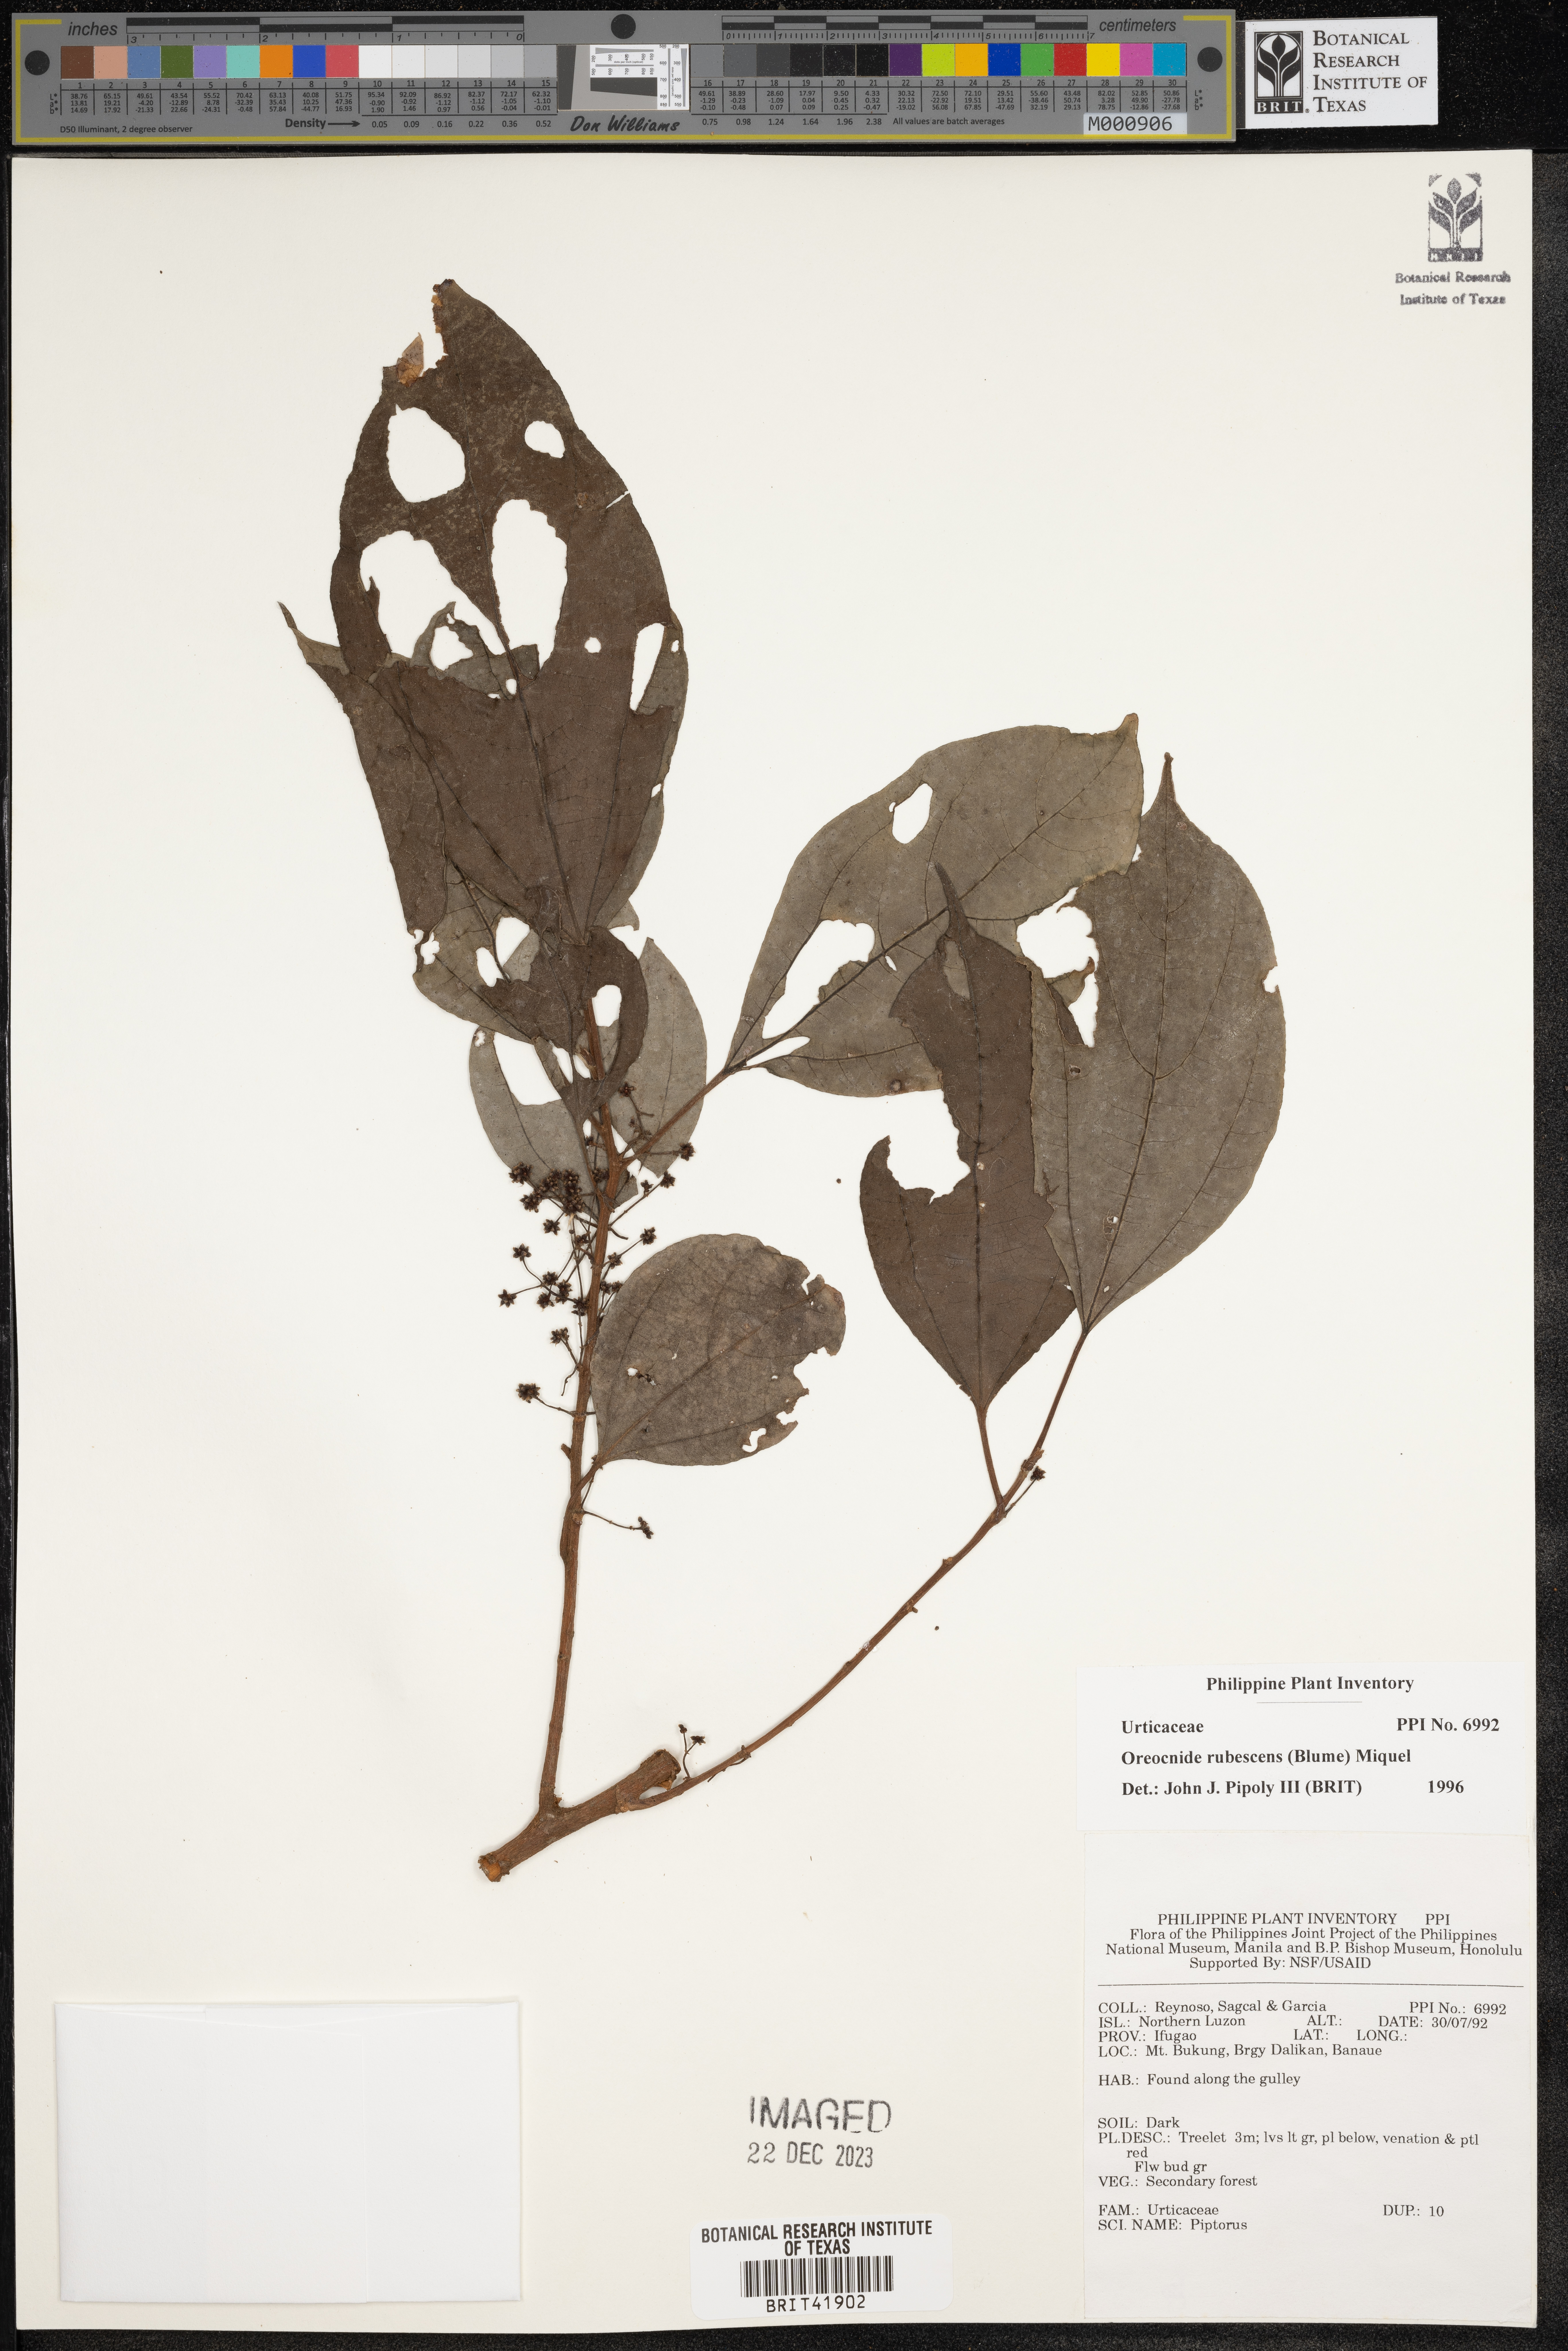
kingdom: Plantae
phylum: Tracheophyta
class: Magnoliopsida
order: Rosales
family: Urticaceae
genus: Oreocnide
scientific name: Oreocnide rubescens
